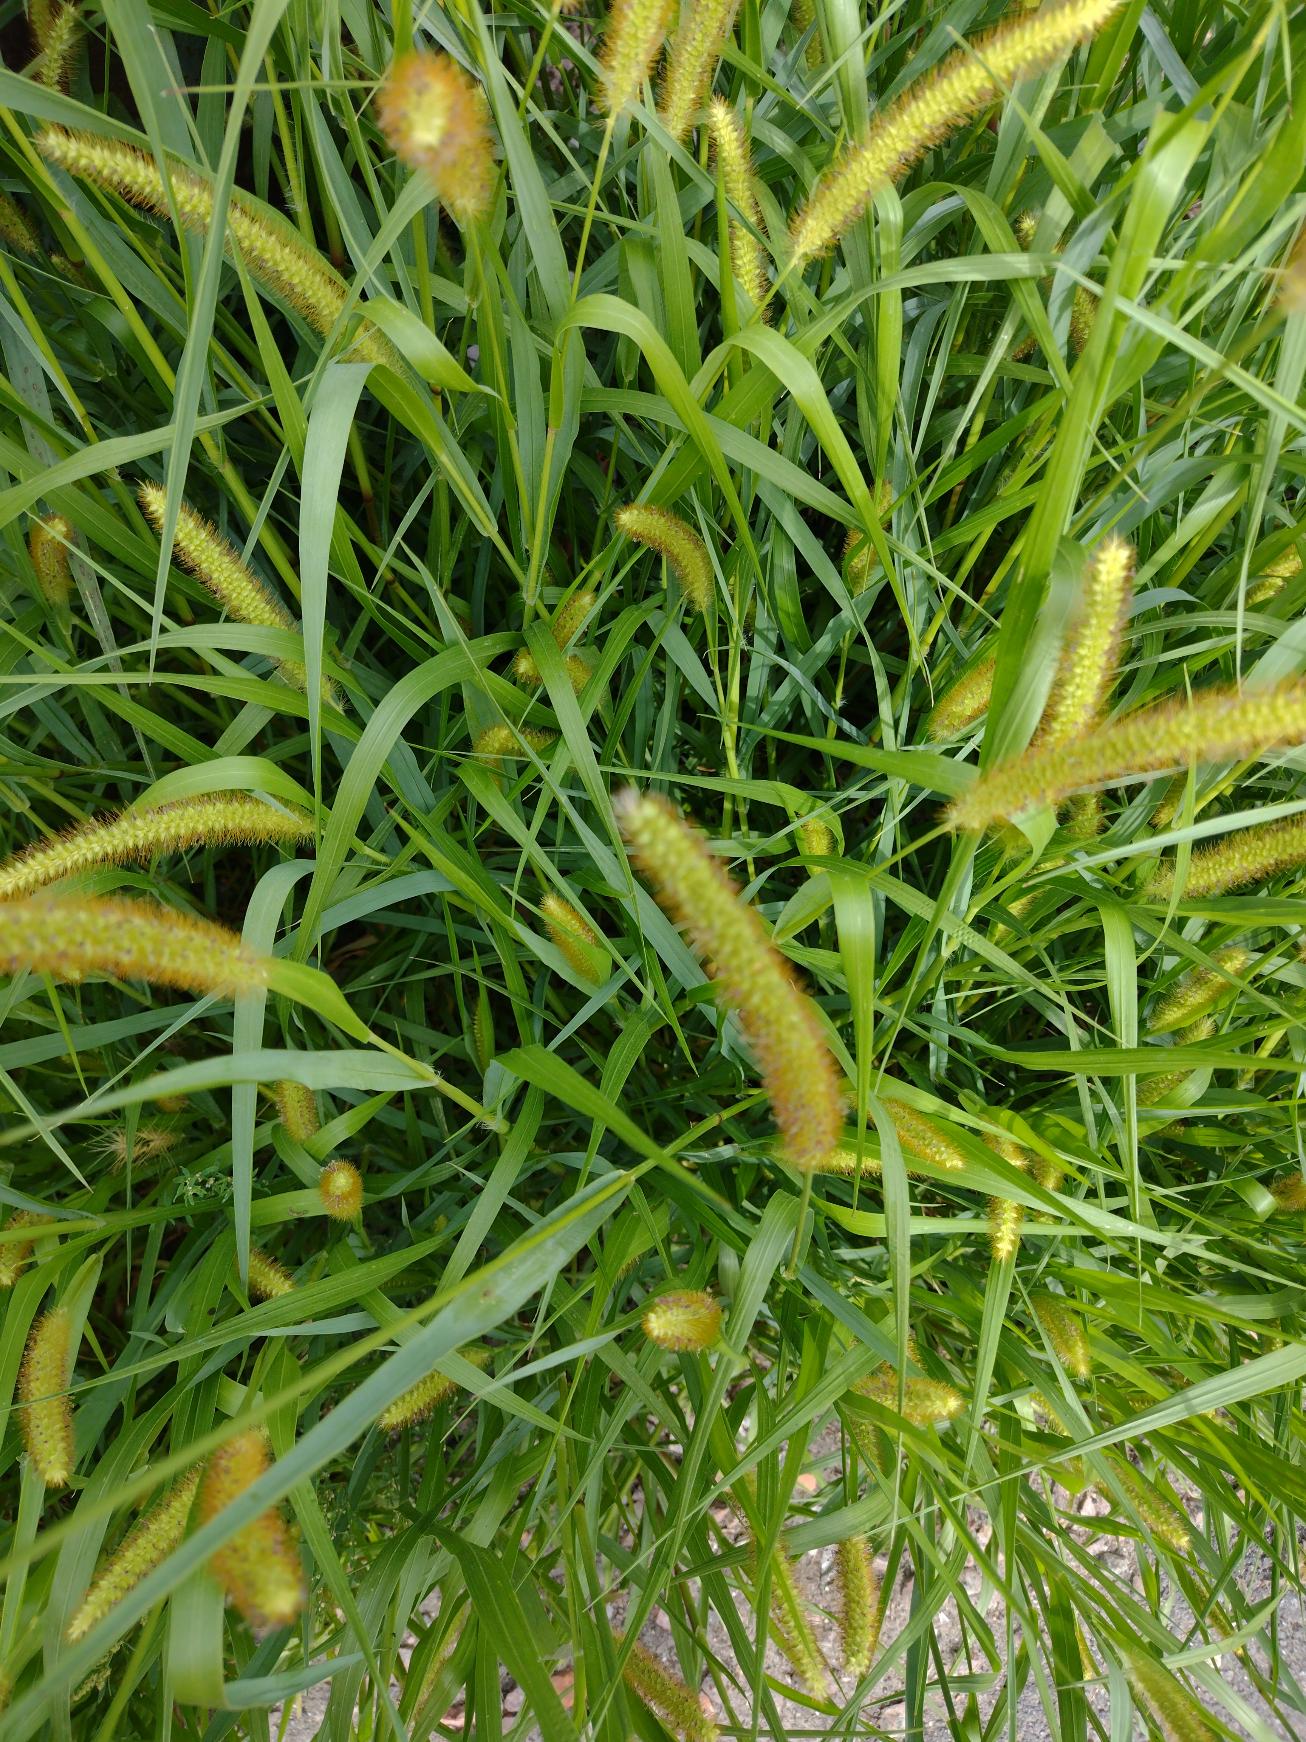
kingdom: Plantae
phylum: Tracheophyta
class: Liliopsida
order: Poales
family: Poaceae
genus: Setaria
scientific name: Setaria pumila
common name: Blågrøn skærmaks
